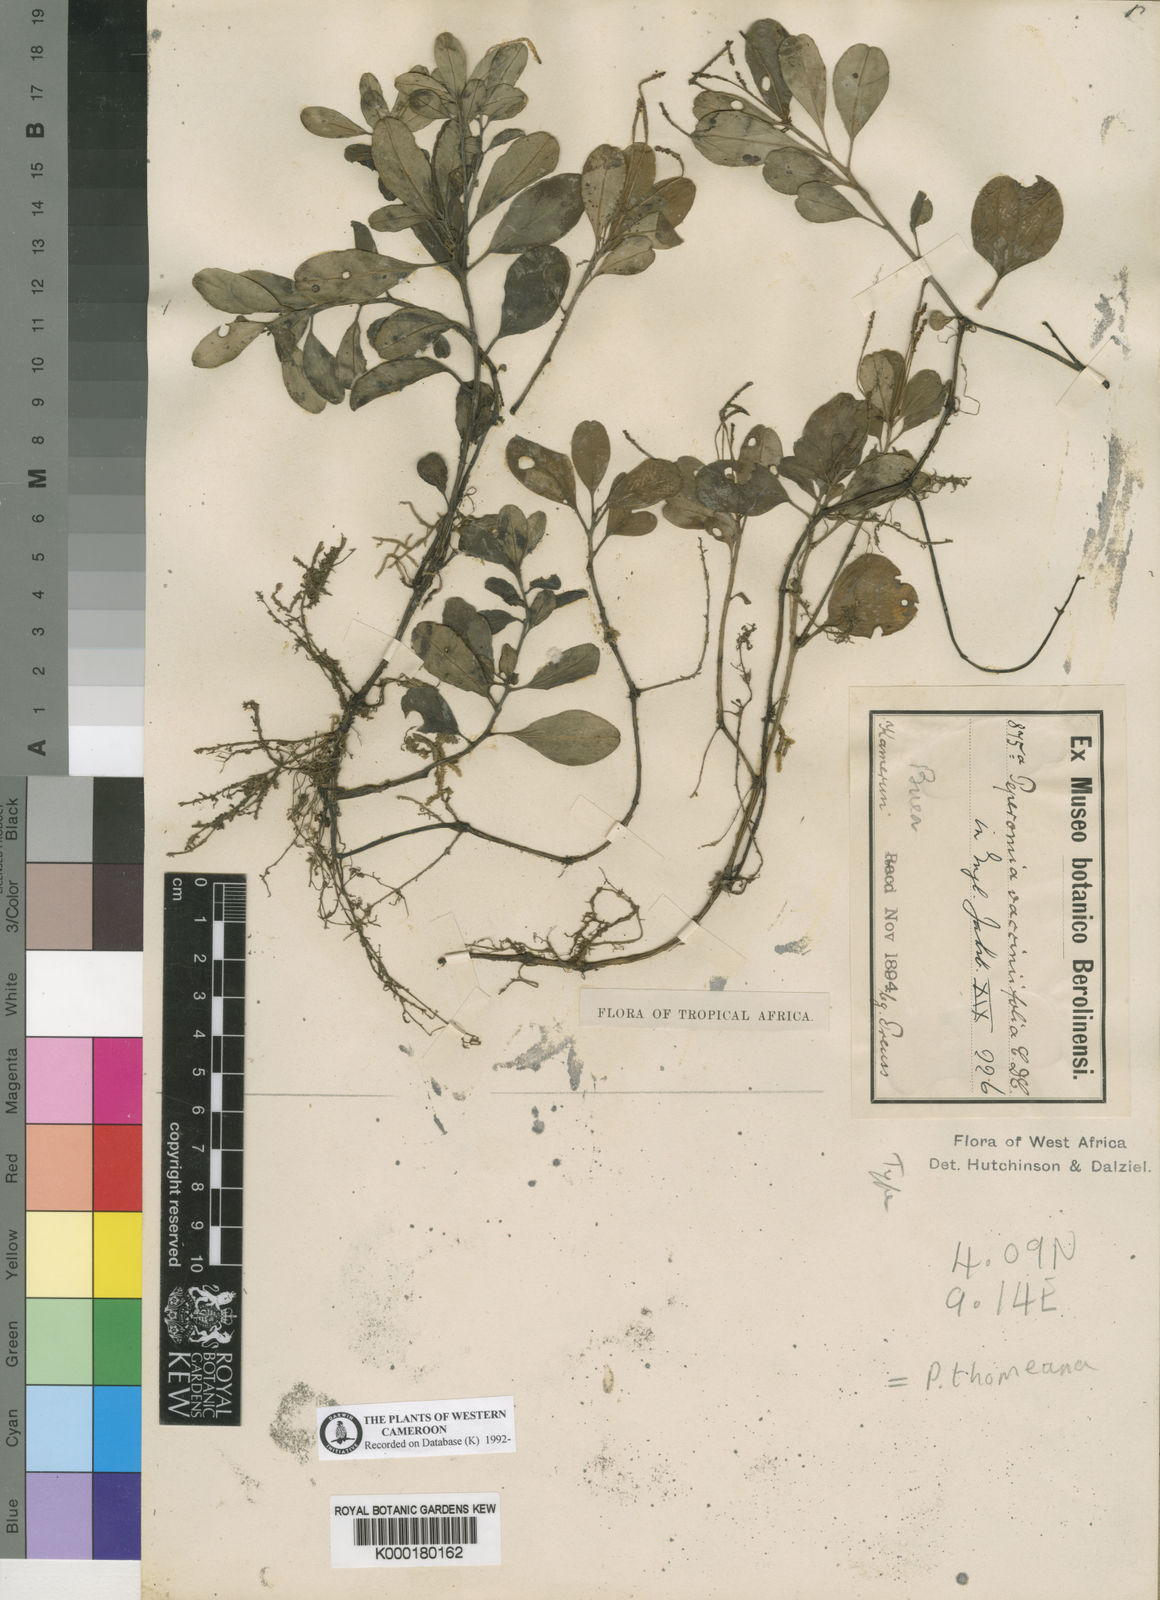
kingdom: Plantae
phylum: Tracheophyta
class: Magnoliopsida
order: Piperales
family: Piperaceae
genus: Peperomia
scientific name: Peperomia thomeana
